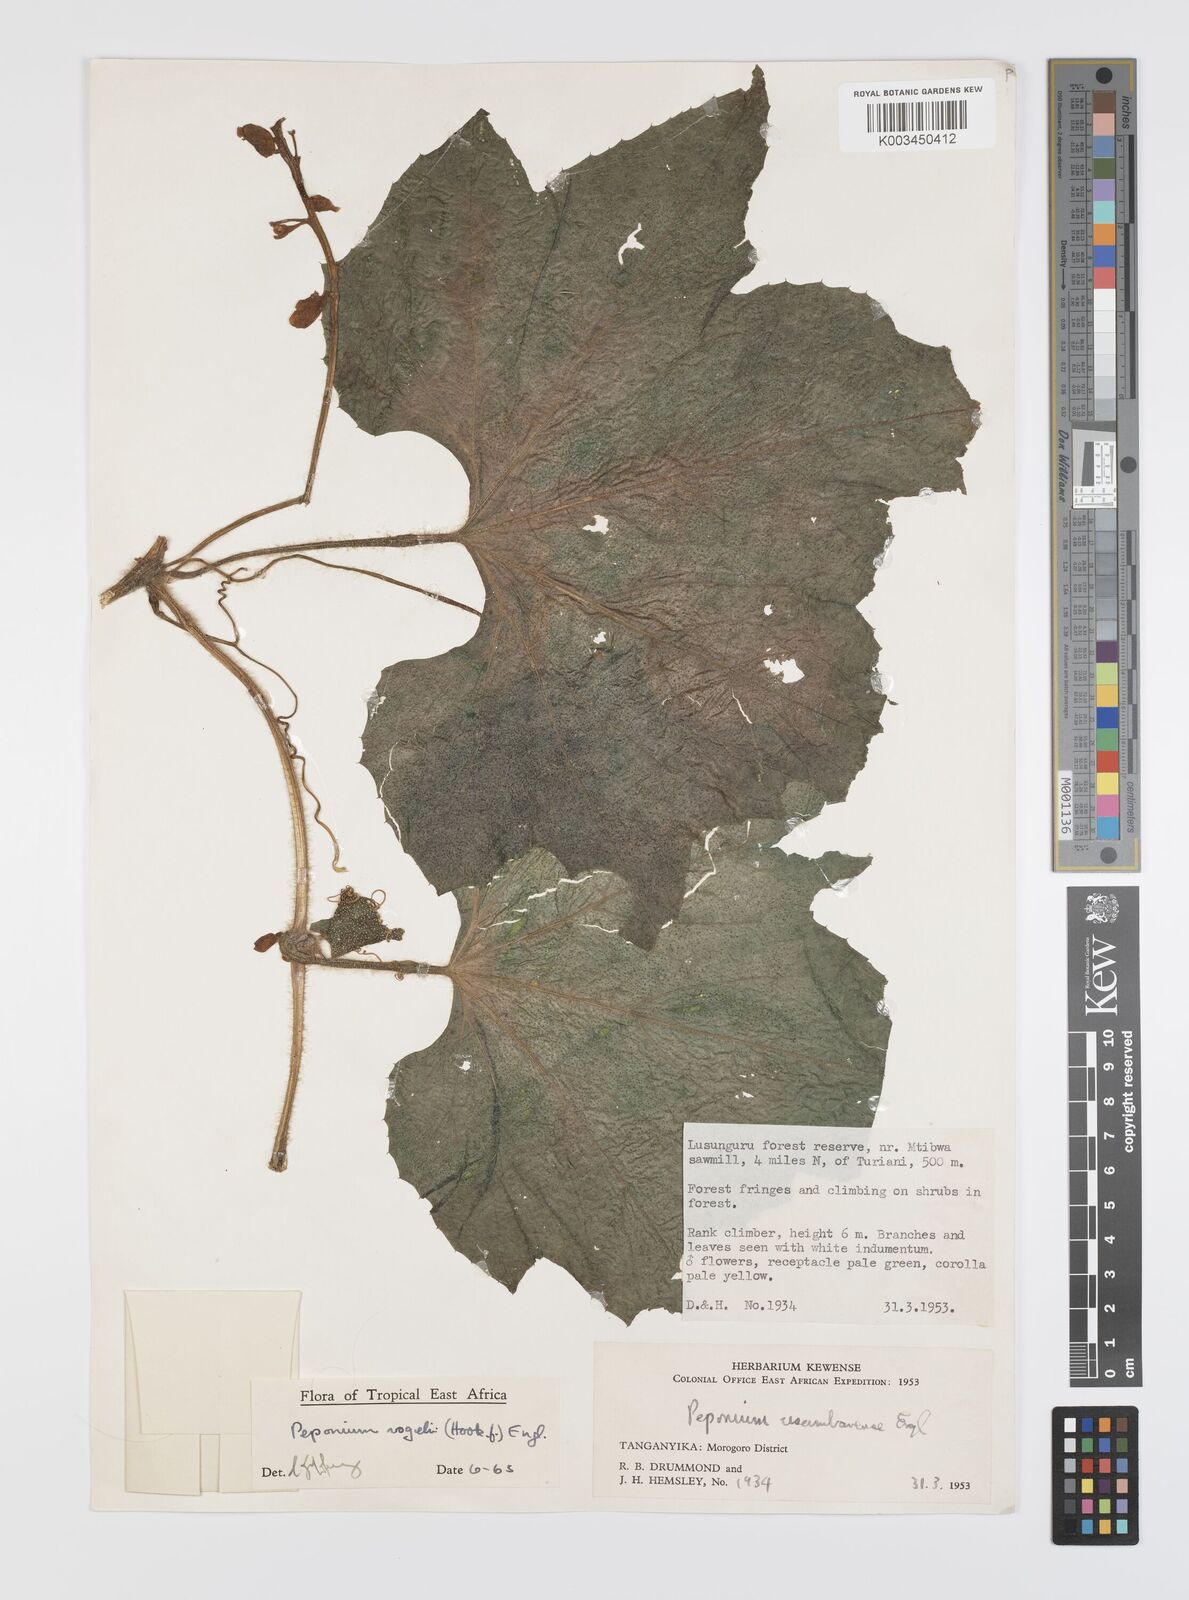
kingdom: Plantae
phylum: Tracheophyta
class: Magnoliopsida
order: Cucurbitales
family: Cucurbitaceae
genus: Peponium
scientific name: Peponium vogelii
